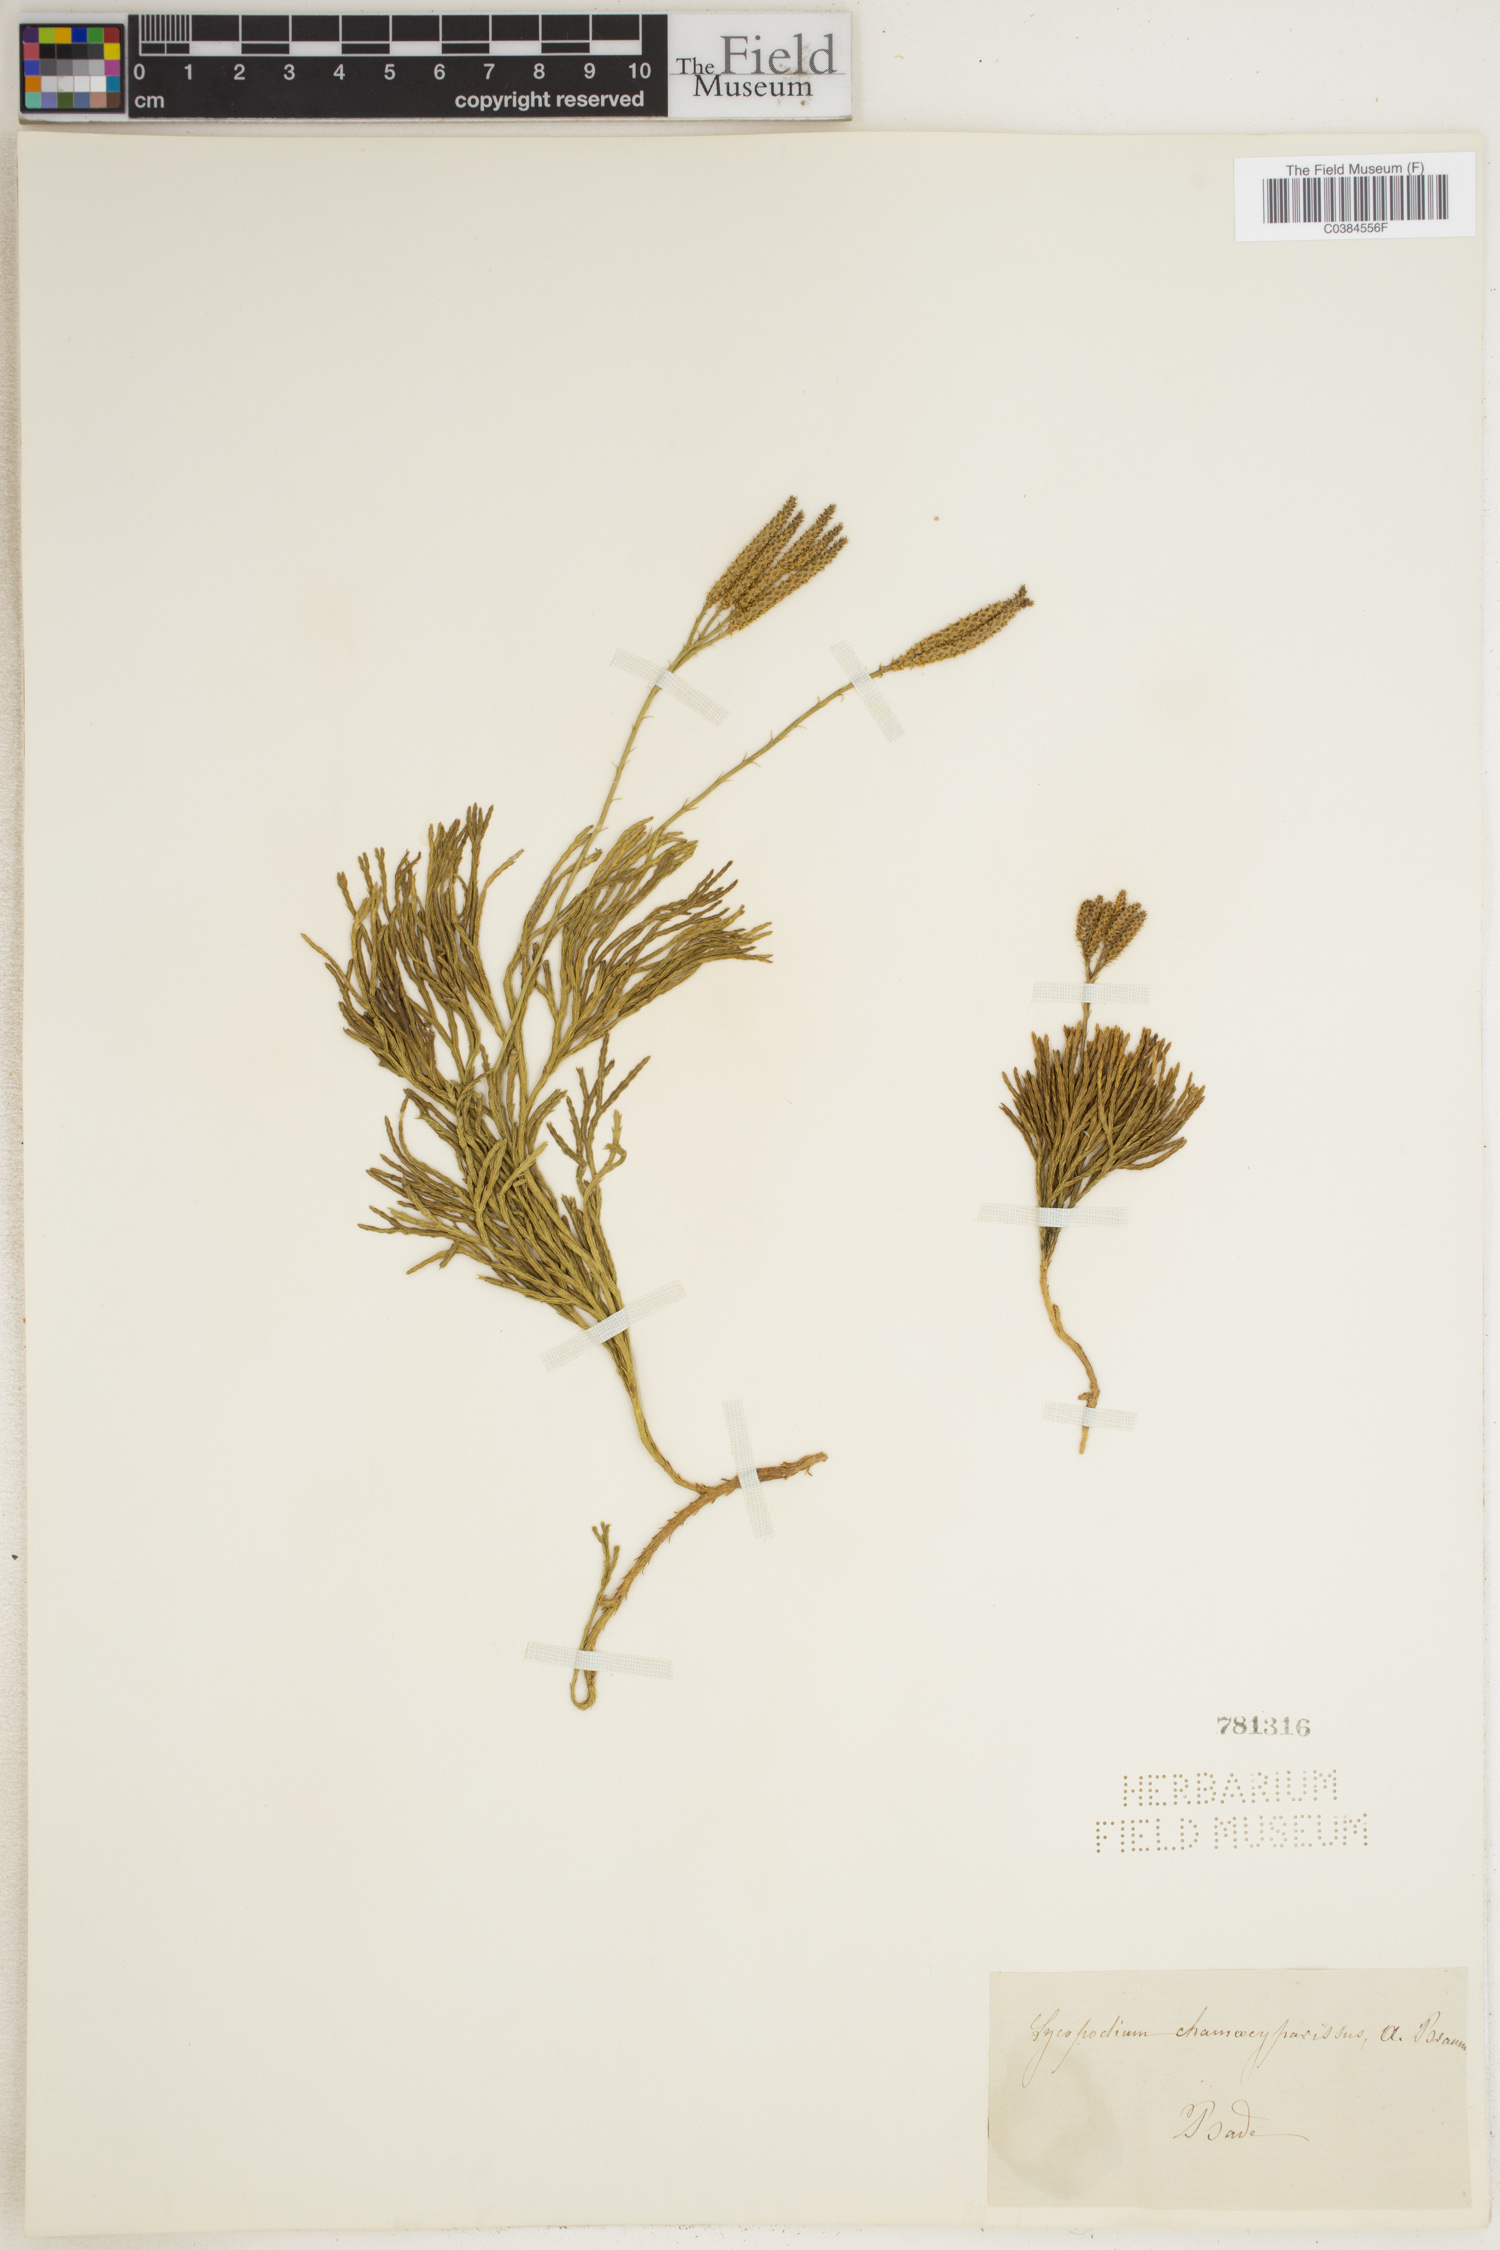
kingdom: Plantae
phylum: Tracheophyta
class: Lycopodiopsida
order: Lycopodiales
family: Lycopodiaceae
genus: Diphasiastrum
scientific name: Diphasiastrum tristachyum
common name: Blue ground-cedar
